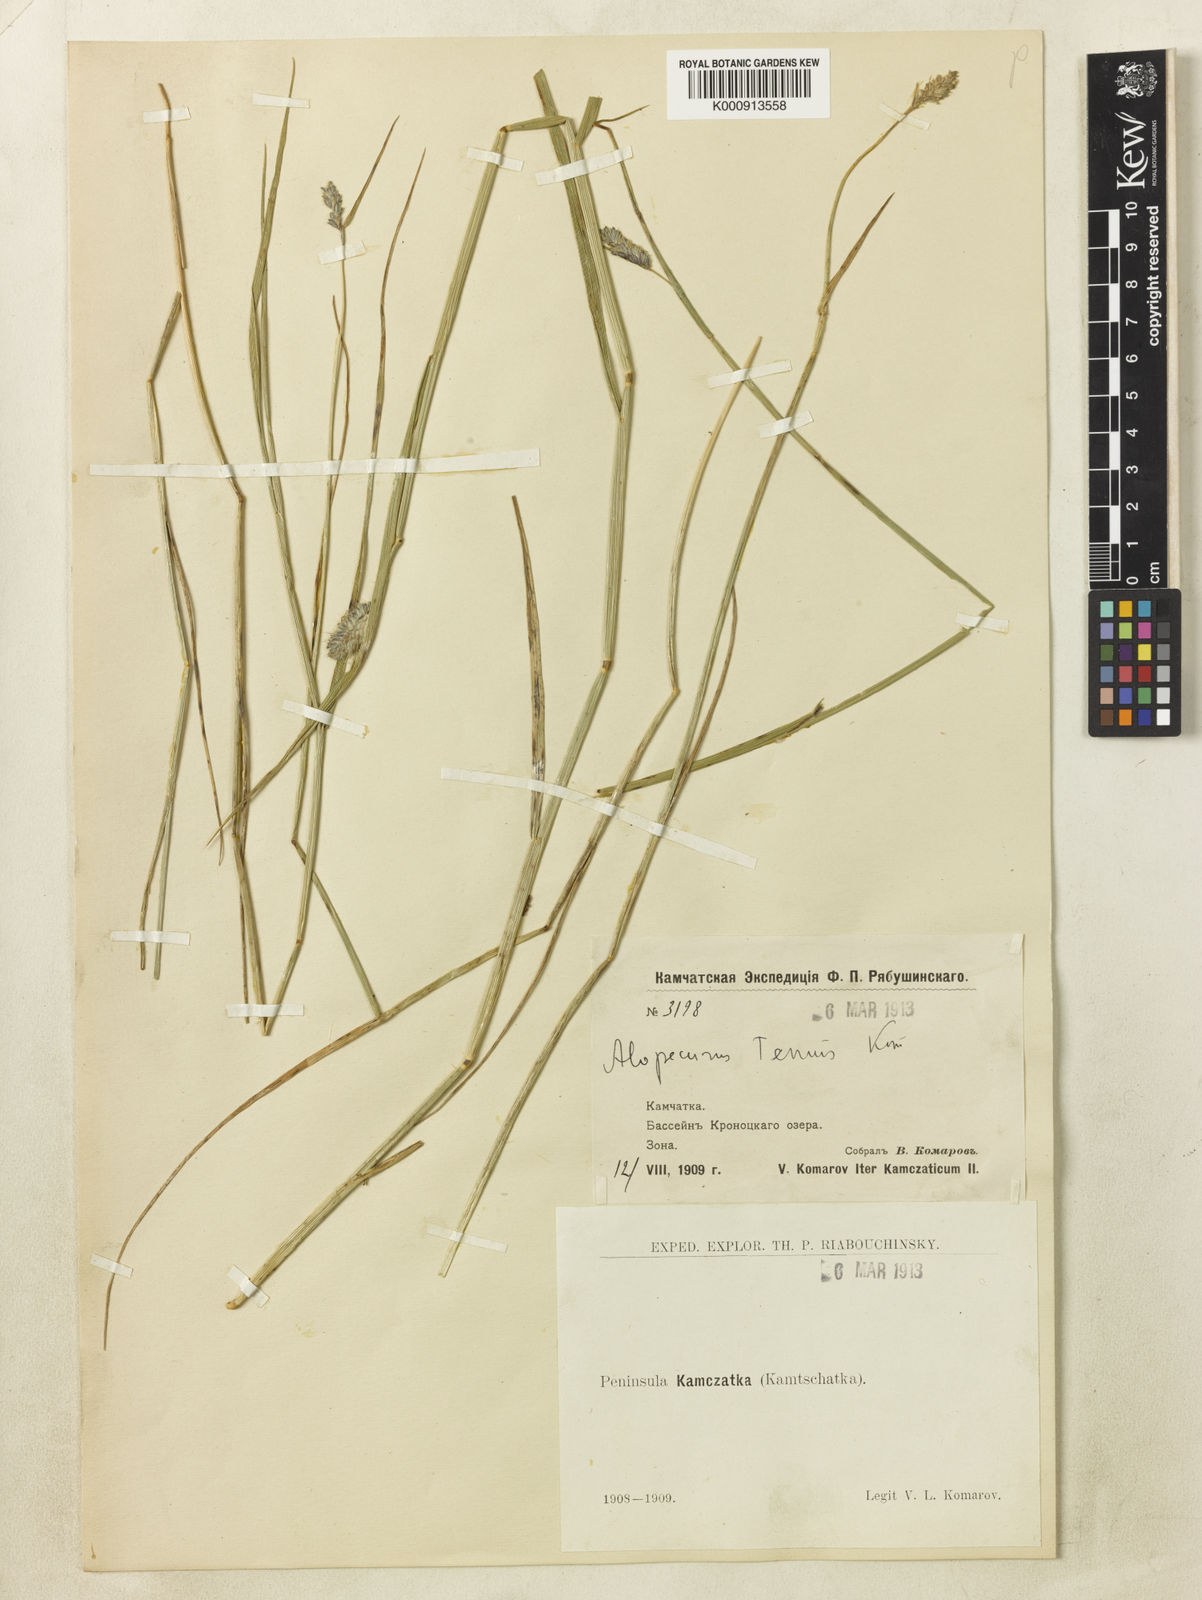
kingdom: Plantae
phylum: Tracheophyta
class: Liliopsida
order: Poales
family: Poaceae
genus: Alopecurus
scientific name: Alopecurus gerardii
